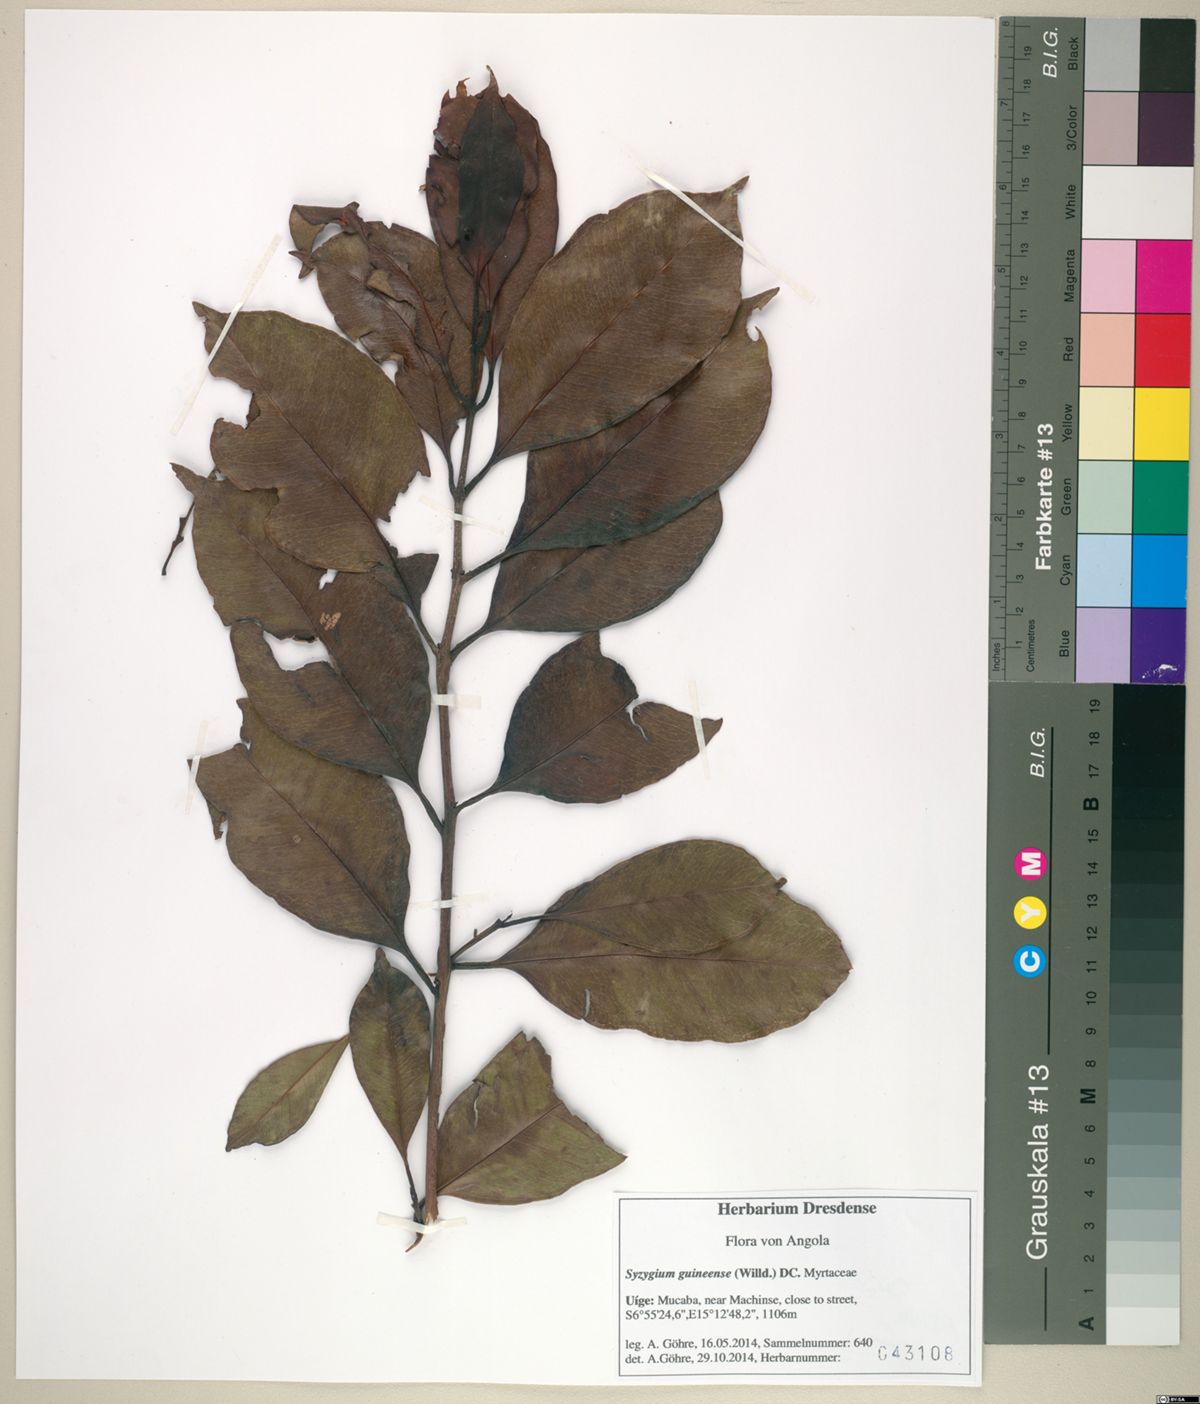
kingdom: Plantae
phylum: Tracheophyta
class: Magnoliopsida
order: Myrtales
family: Myrtaceae
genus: Syzygium
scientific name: Syzygium guineense
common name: Water-pear
